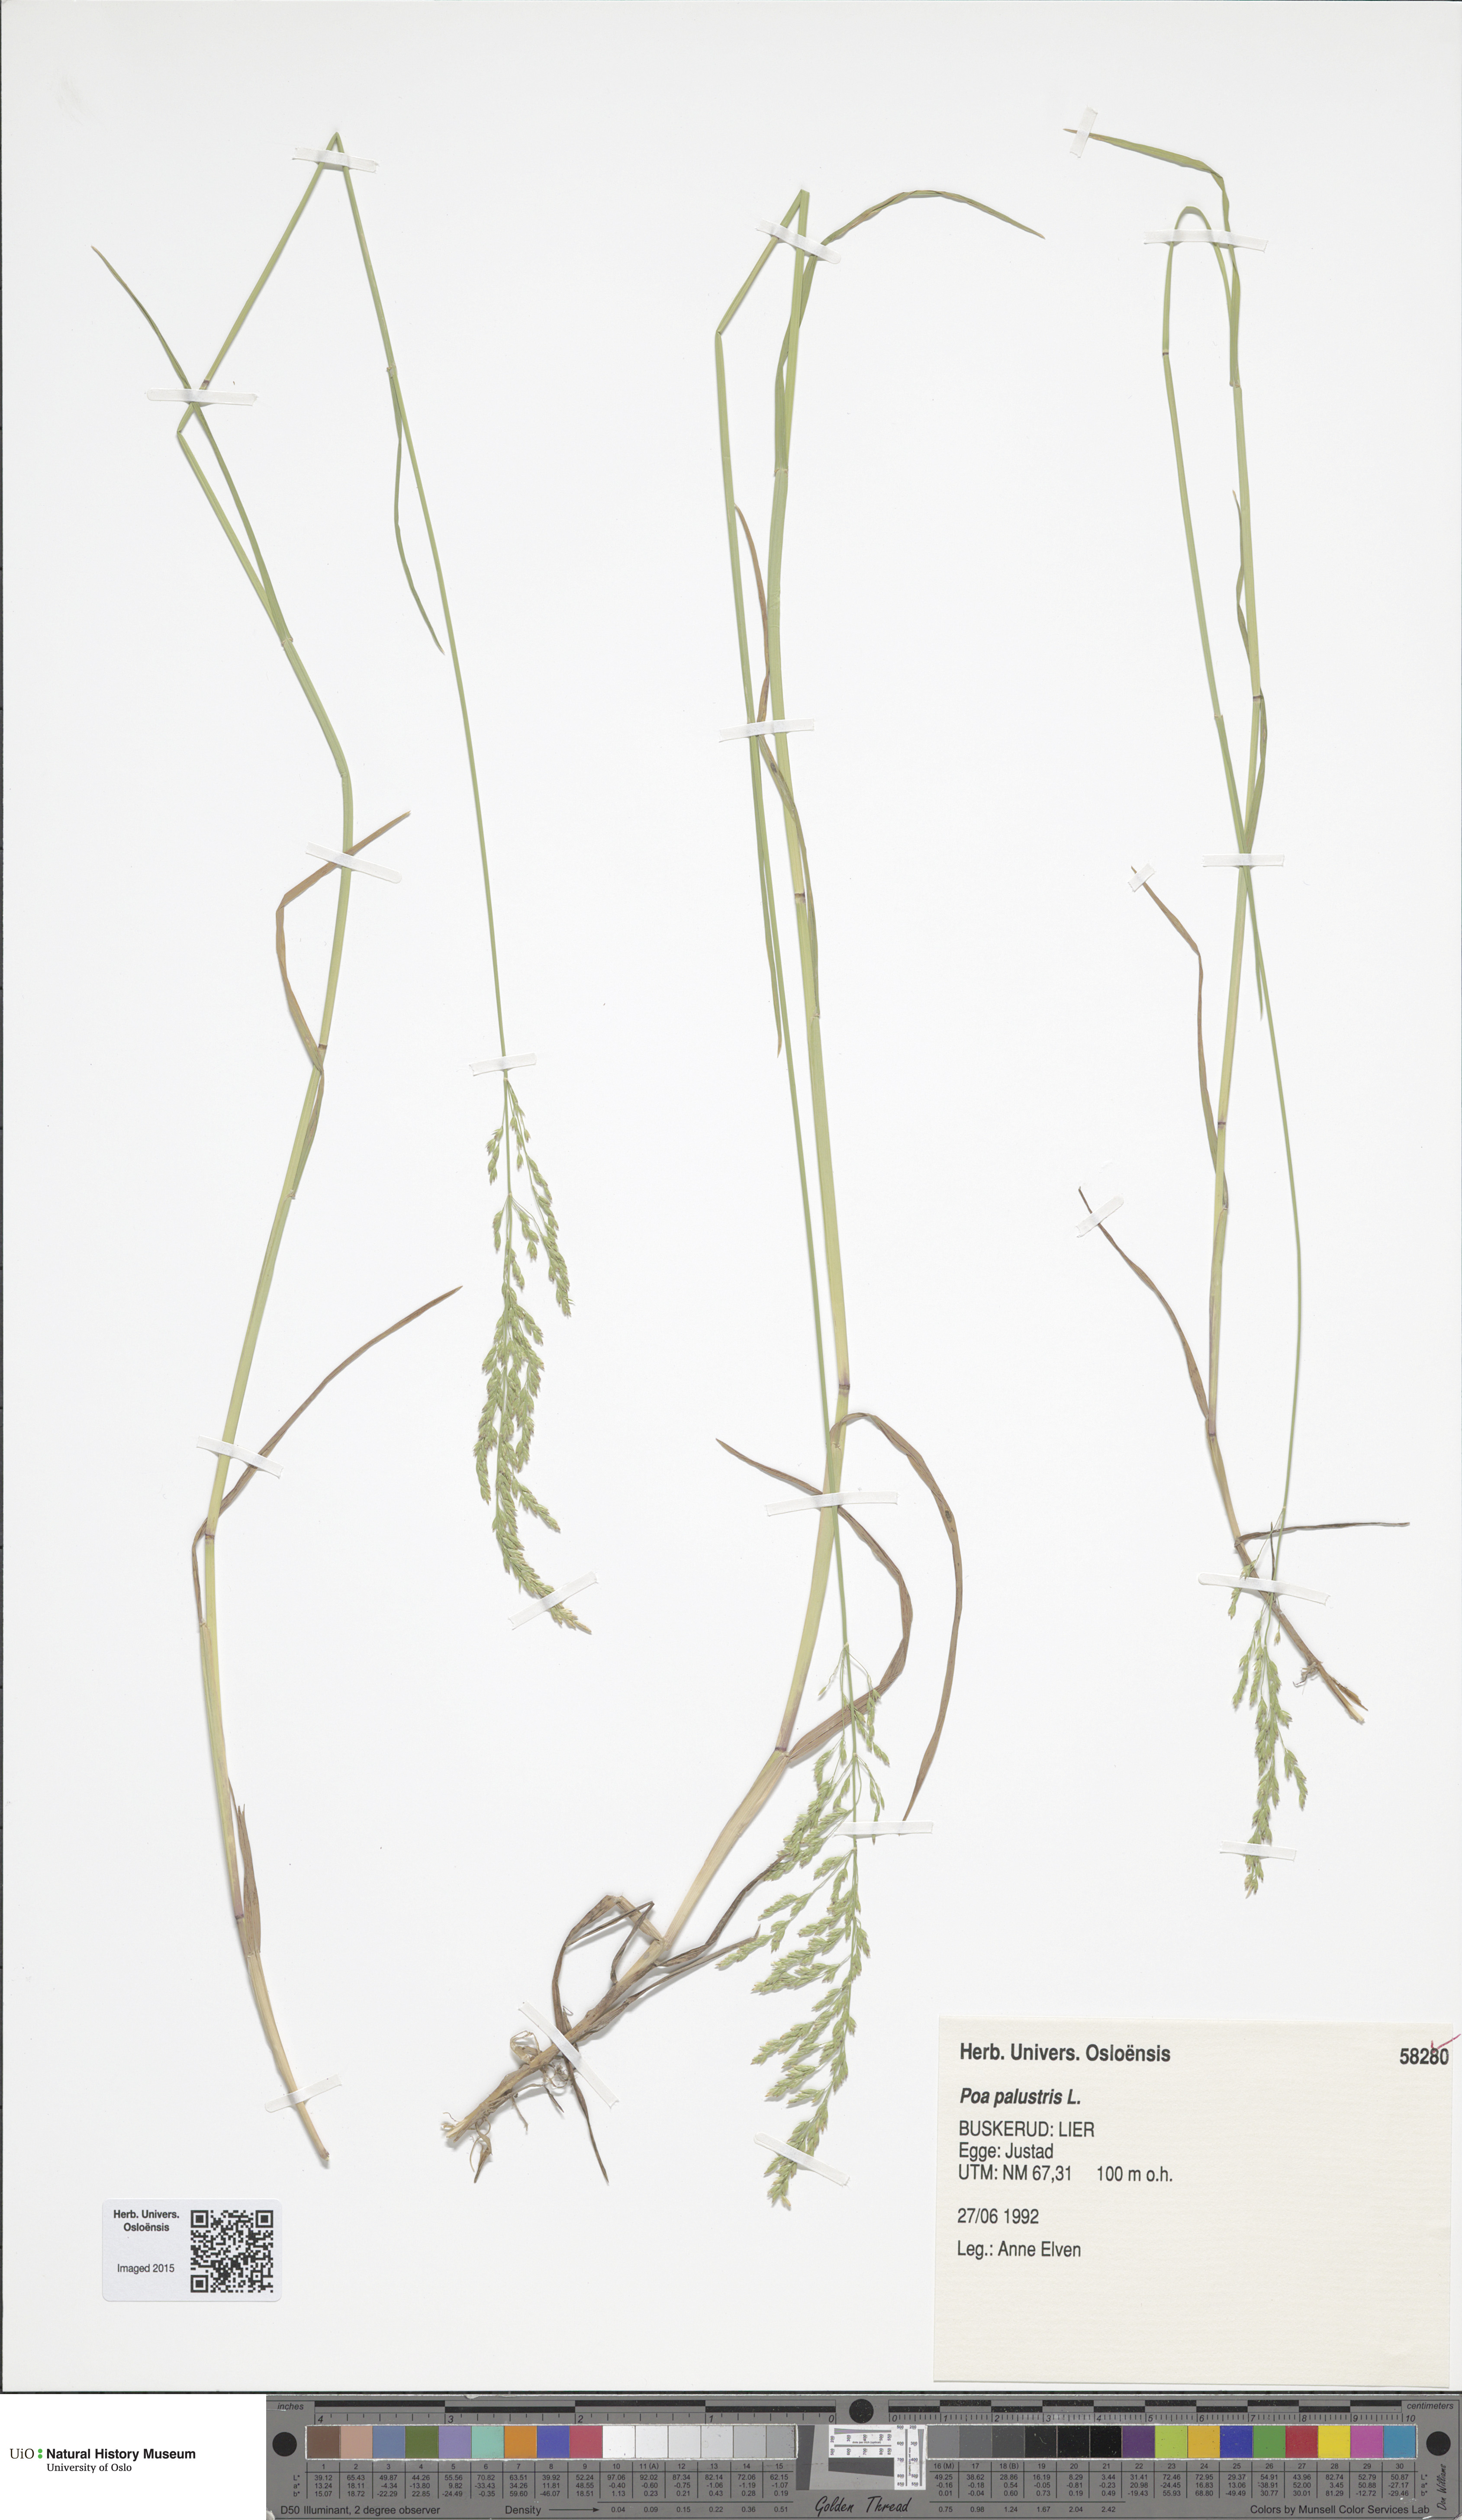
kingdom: Plantae
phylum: Tracheophyta
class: Liliopsida
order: Poales
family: Poaceae
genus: Poa
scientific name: Poa palustris
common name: Swamp meadow-grass
